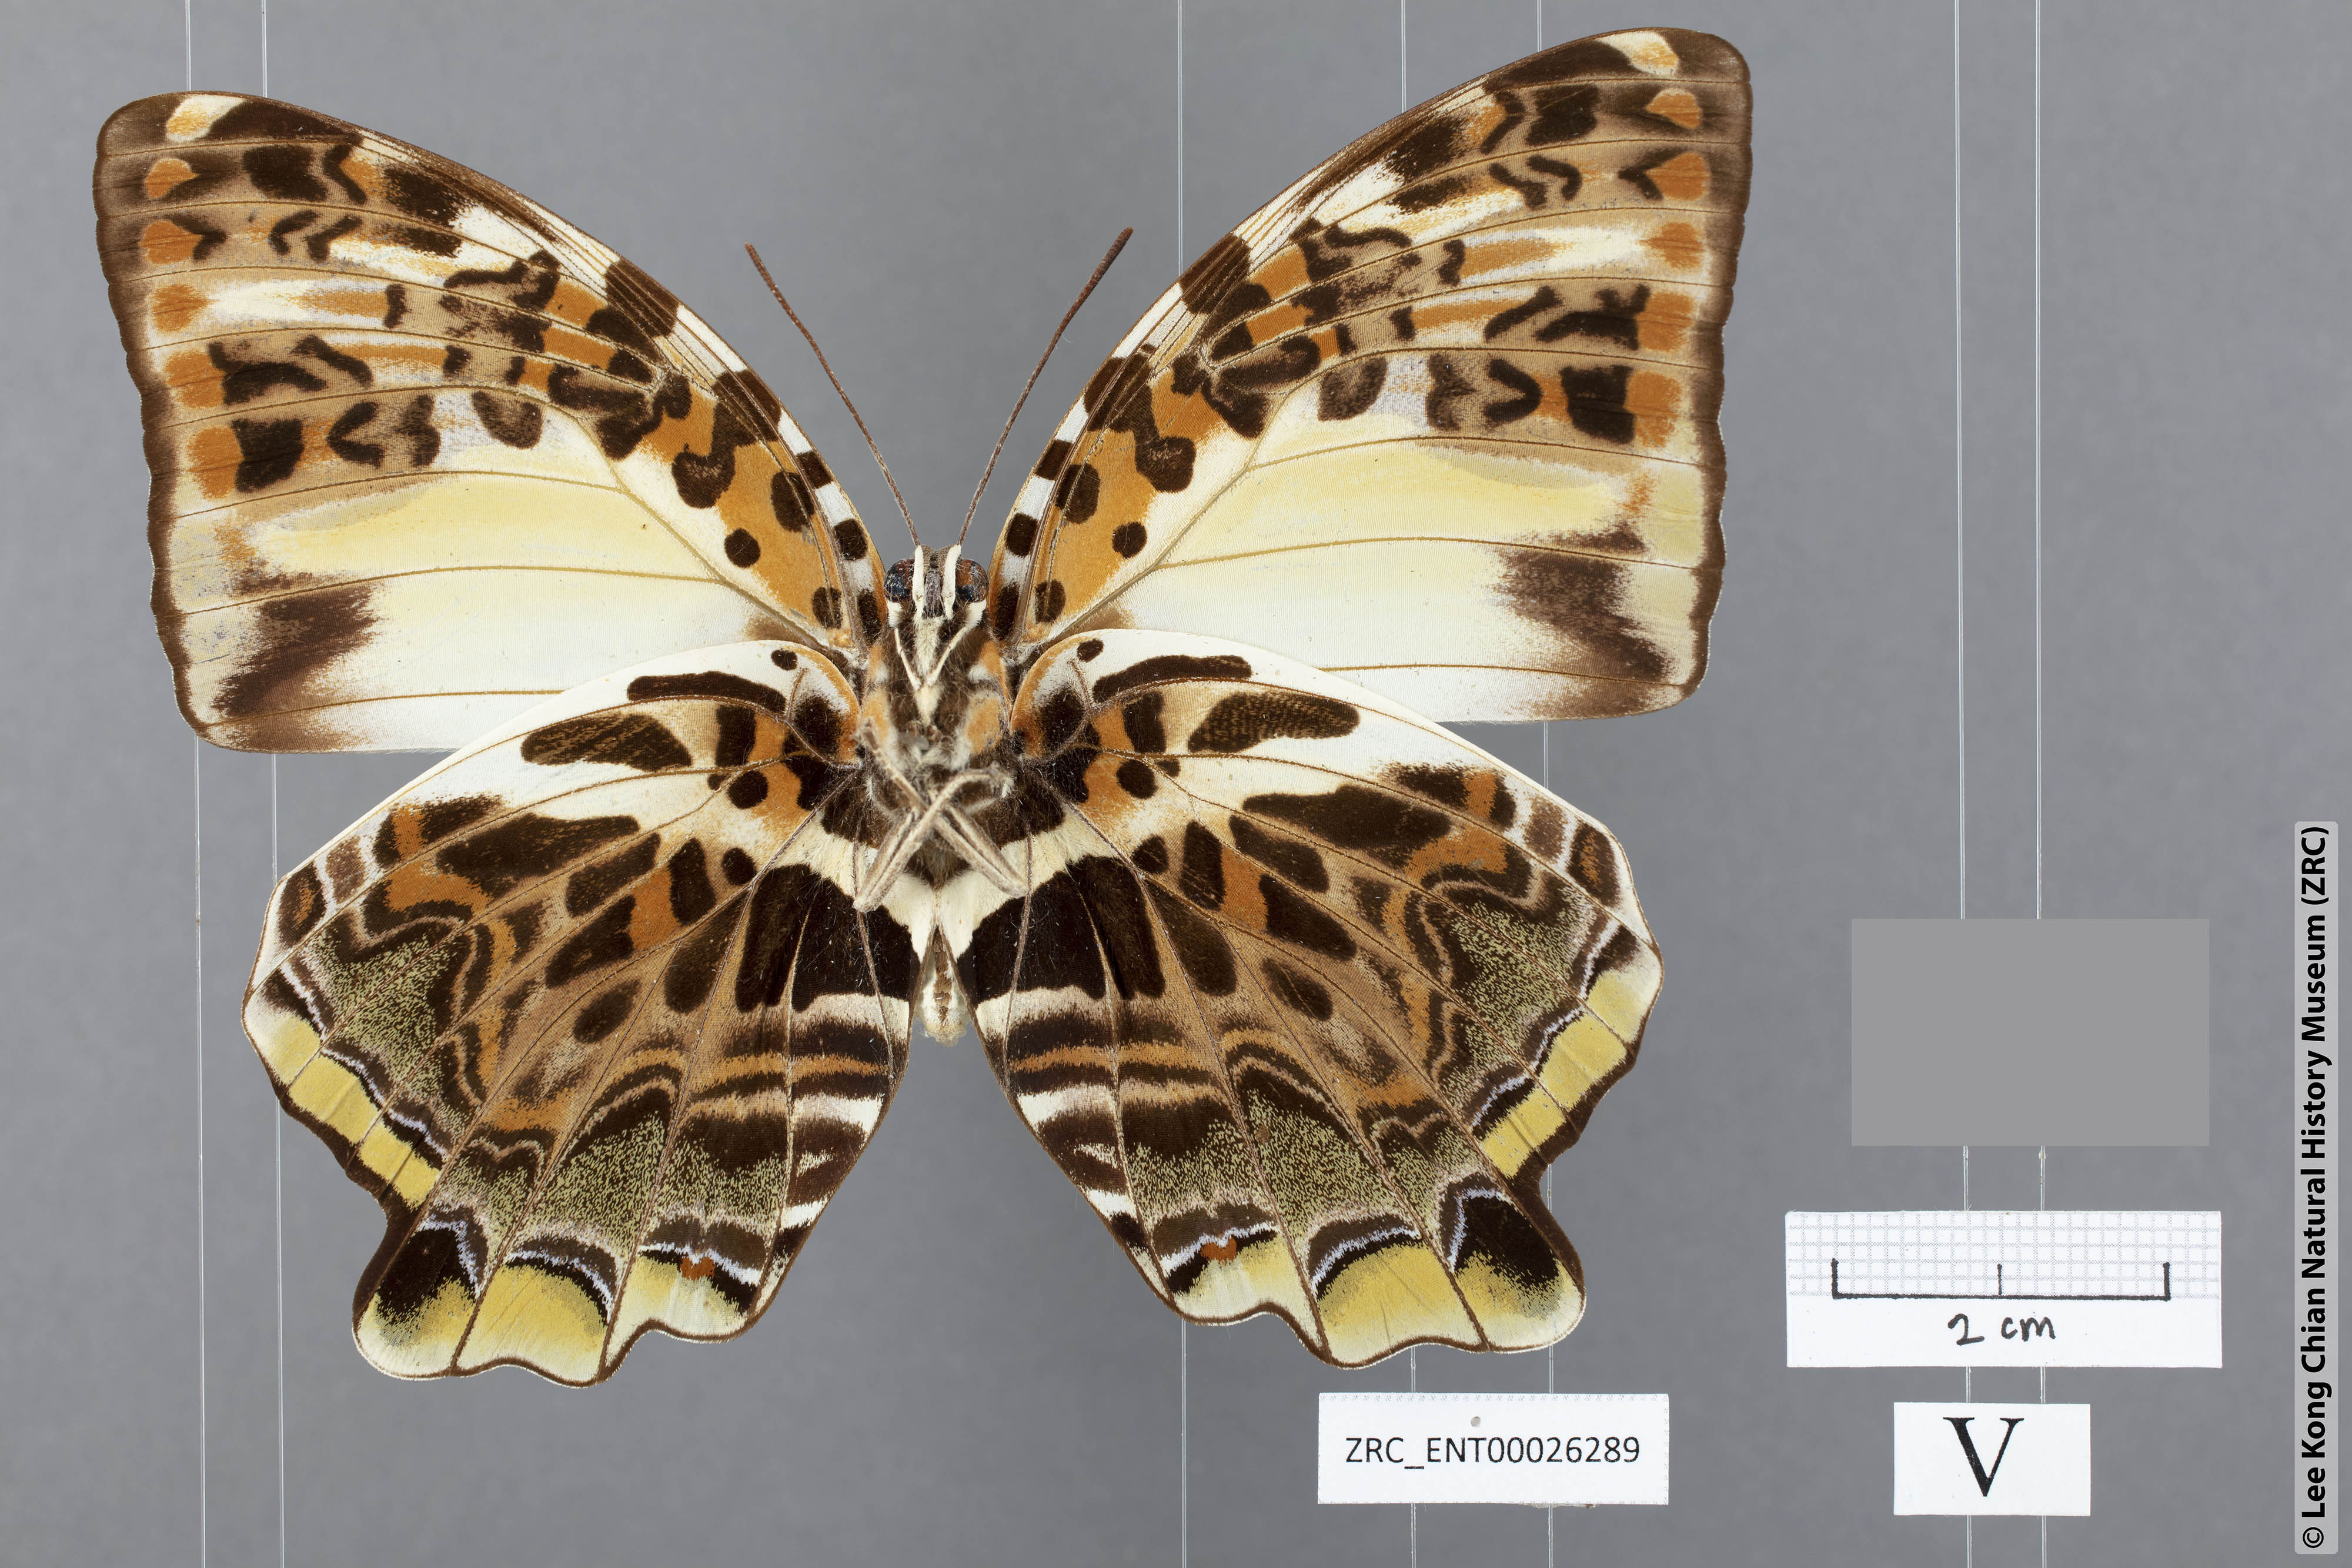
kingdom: Animalia
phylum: Arthropoda
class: Insecta
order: Lepidoptera
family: Nymphalidae
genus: Prothoe
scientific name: Prothoe Agatasa calydonia
